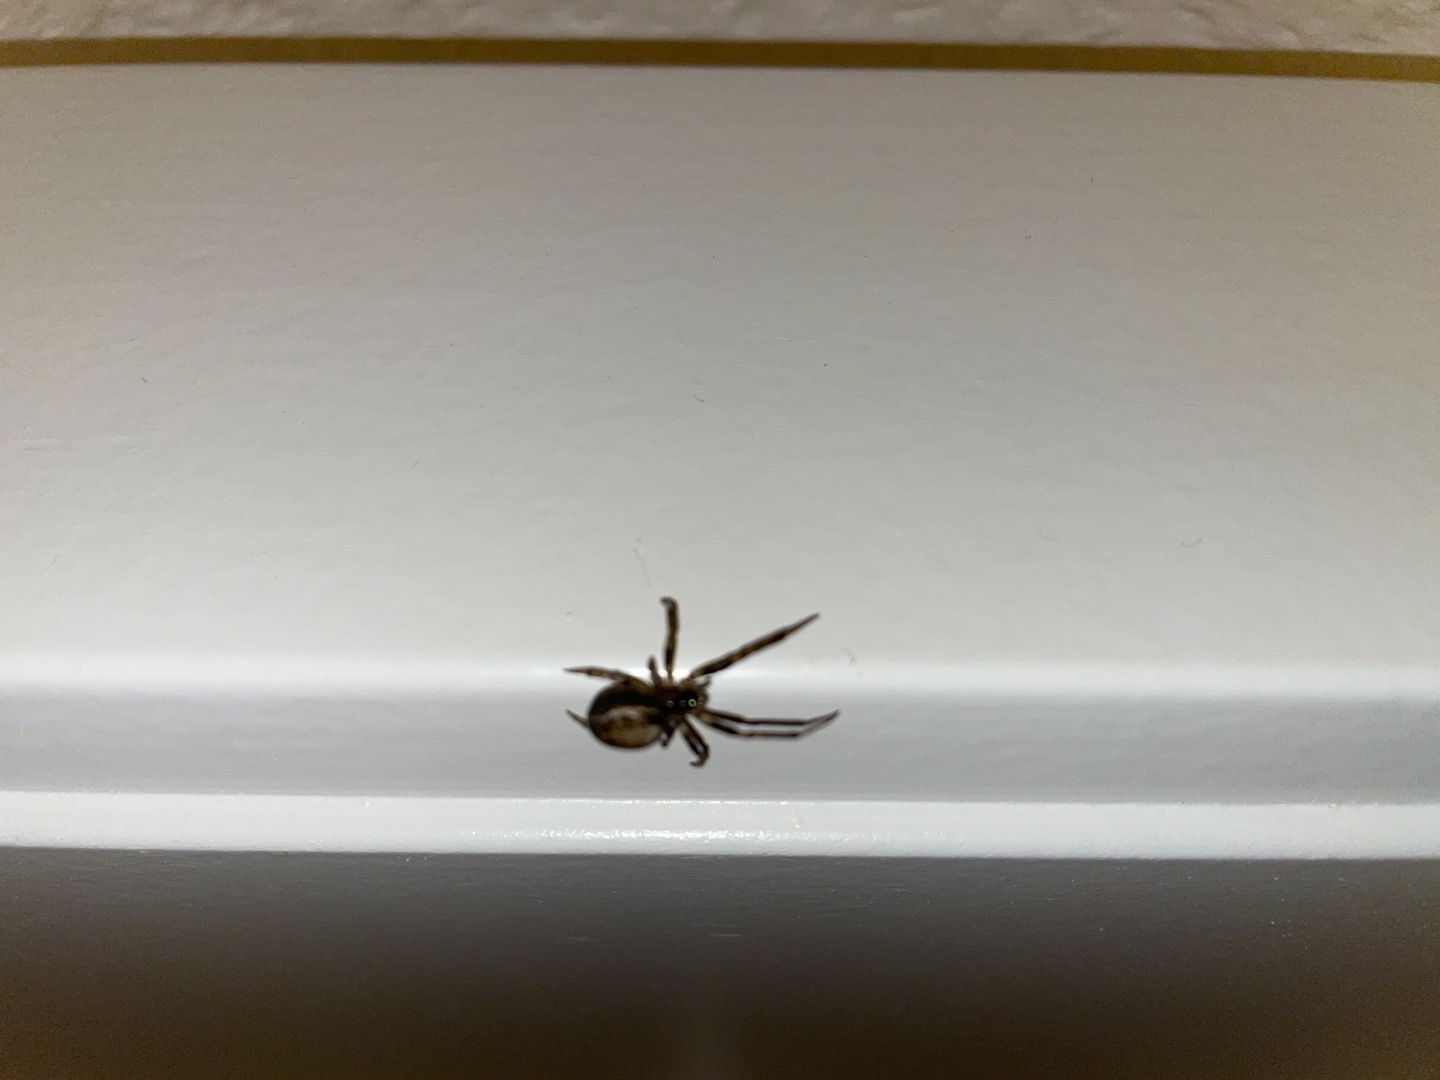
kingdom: Animalia
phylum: Arthropoda
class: Arachnida
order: Araneae
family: Araneidae
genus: Zygiella
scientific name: Zygiella x-notata
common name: Grå sektoredderkop
